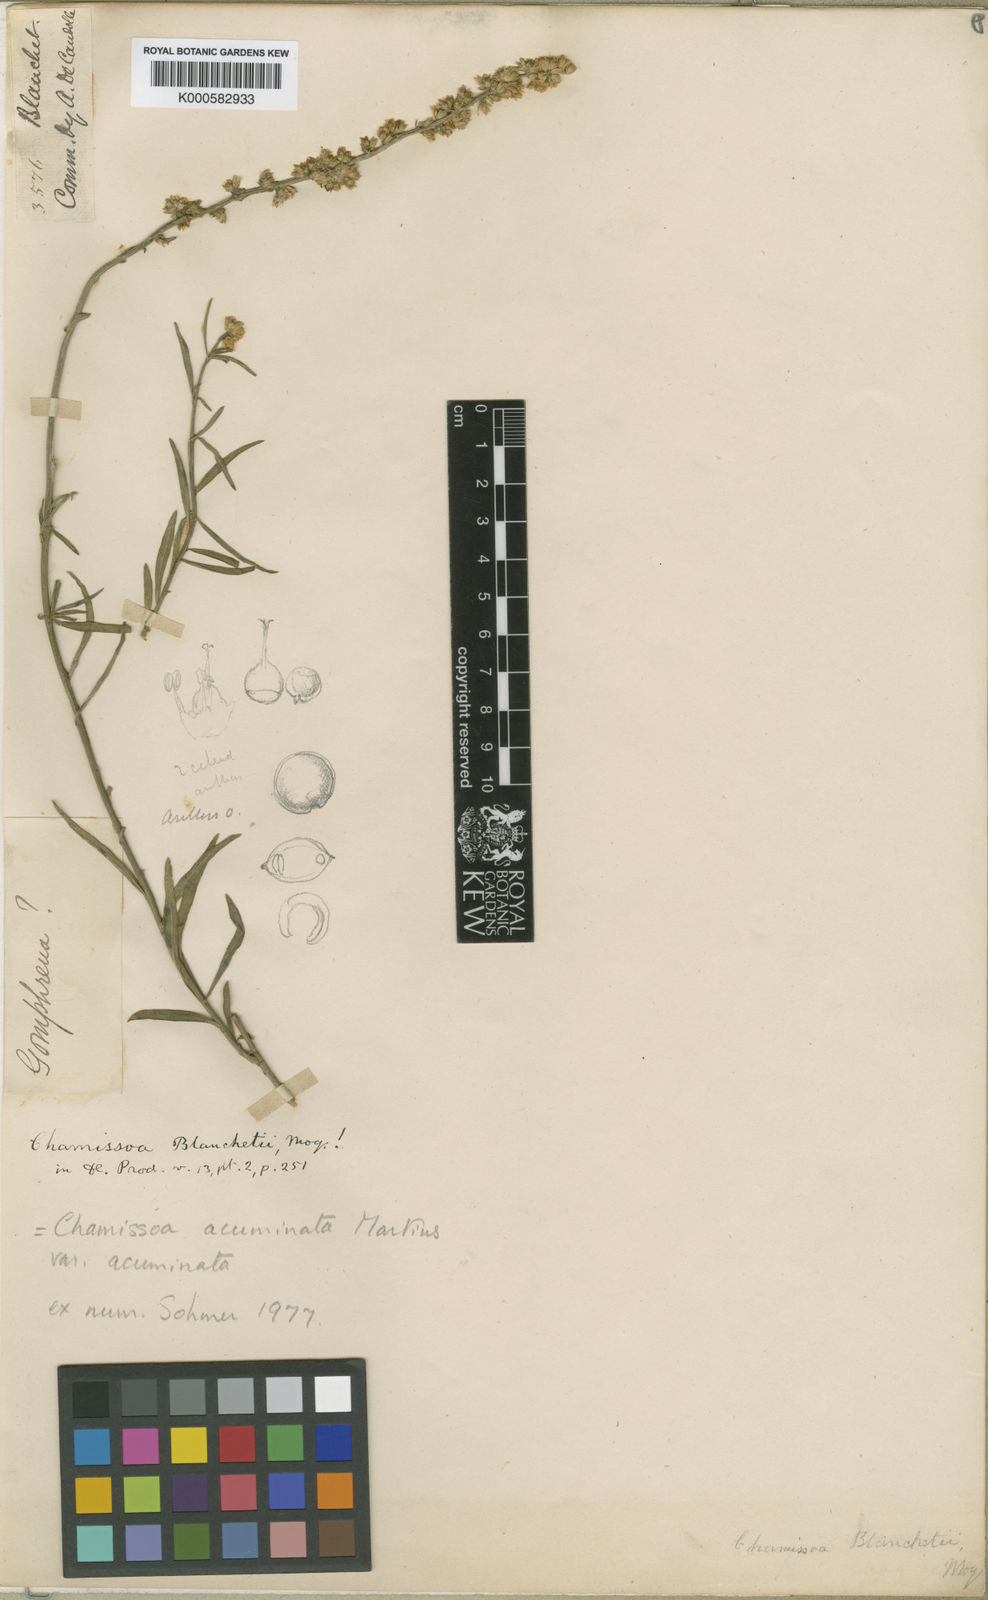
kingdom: Plantae
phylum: Tracheophyta
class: Magnoliopsida
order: Caryophyllales
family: Amaranthaceae
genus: Chamissoa
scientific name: Chamissoa acuminata
